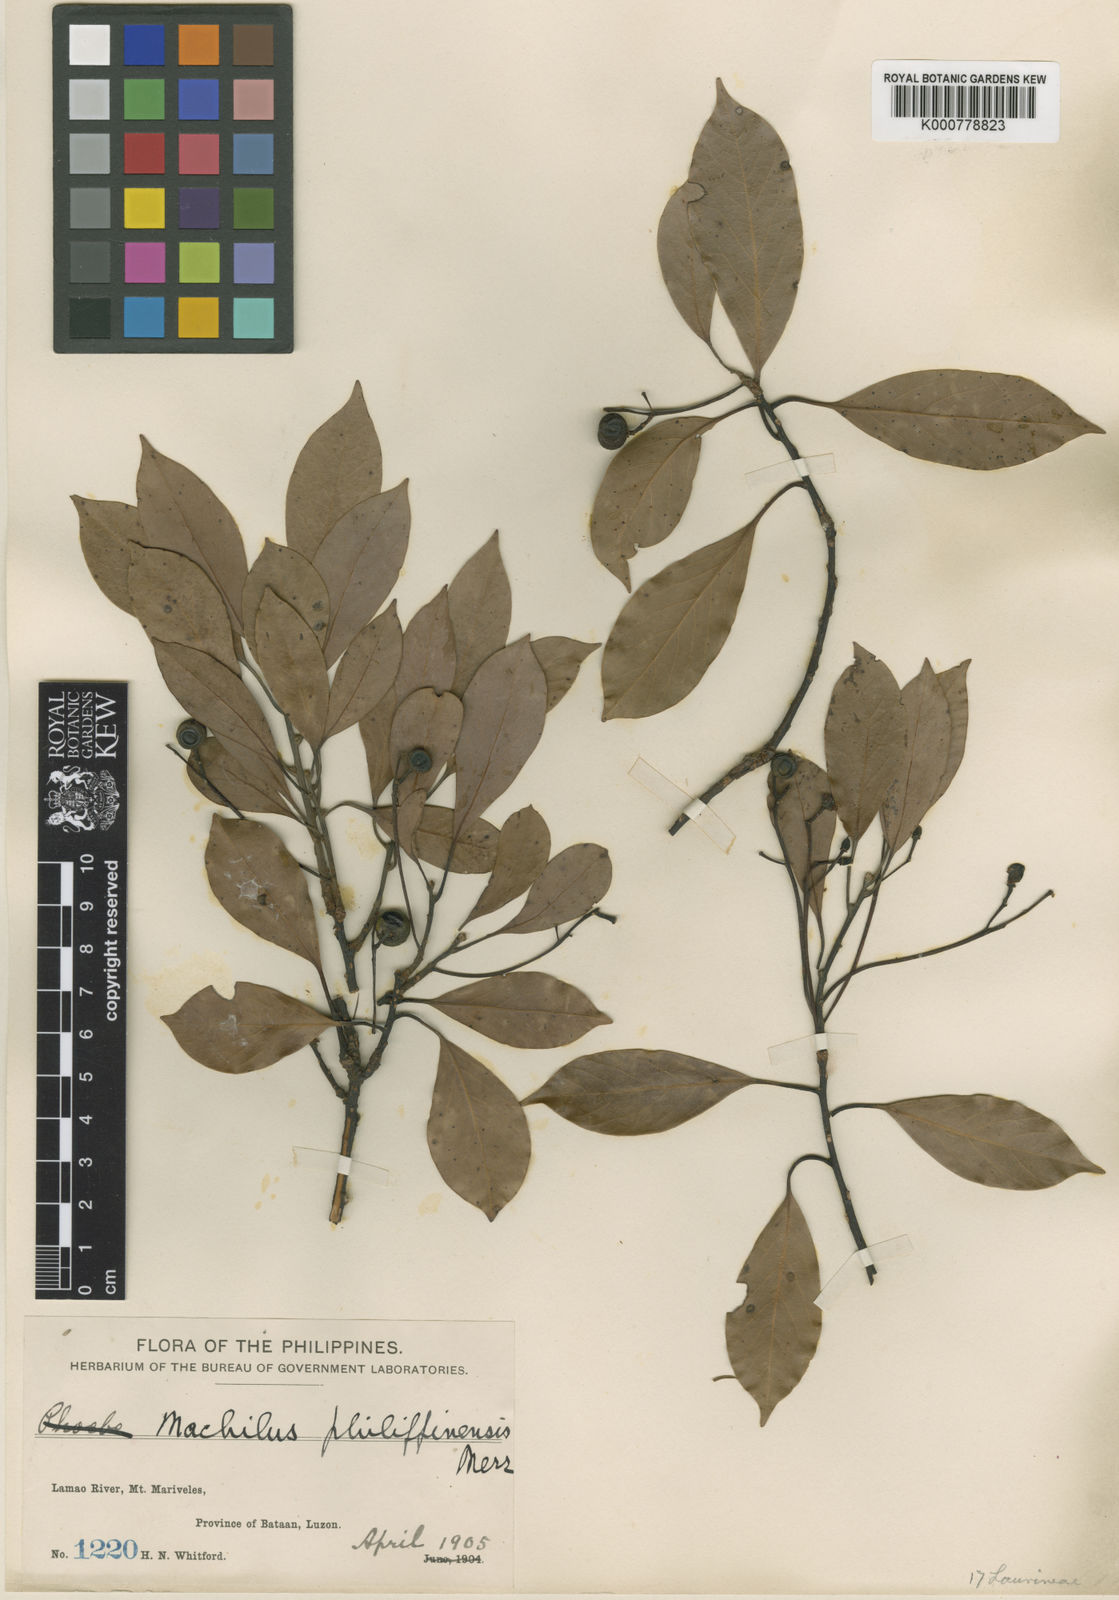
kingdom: Plantae
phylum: Tracheophyta
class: Magnoliopsida
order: Laurales
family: Lauraceae
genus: Cinnamomum
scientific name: Cinnamomum philippinense
